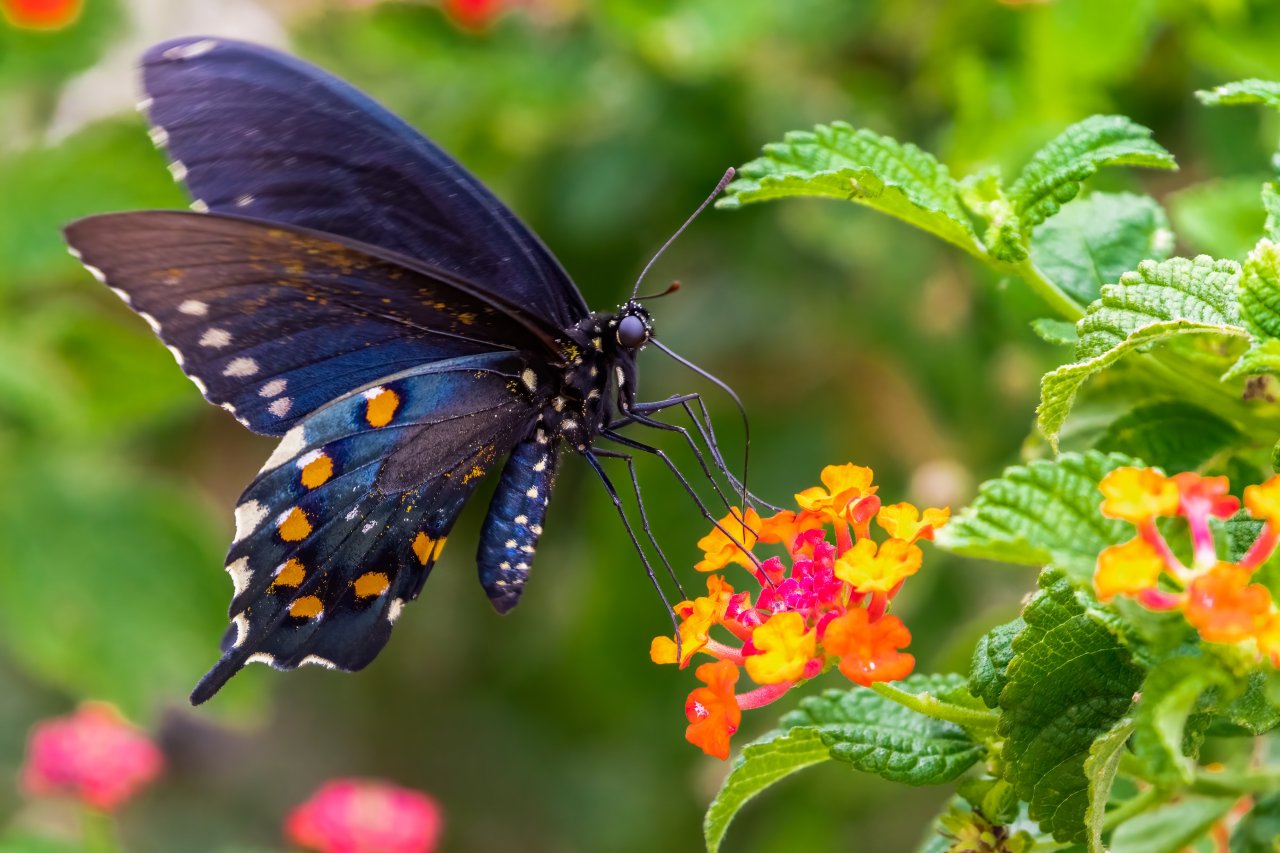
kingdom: Animalia
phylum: Arthropoda
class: Insecta
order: Lepidoptera
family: Papilionidae
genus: Battus
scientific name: Battus philenor
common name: Pipevine Swallowtail
